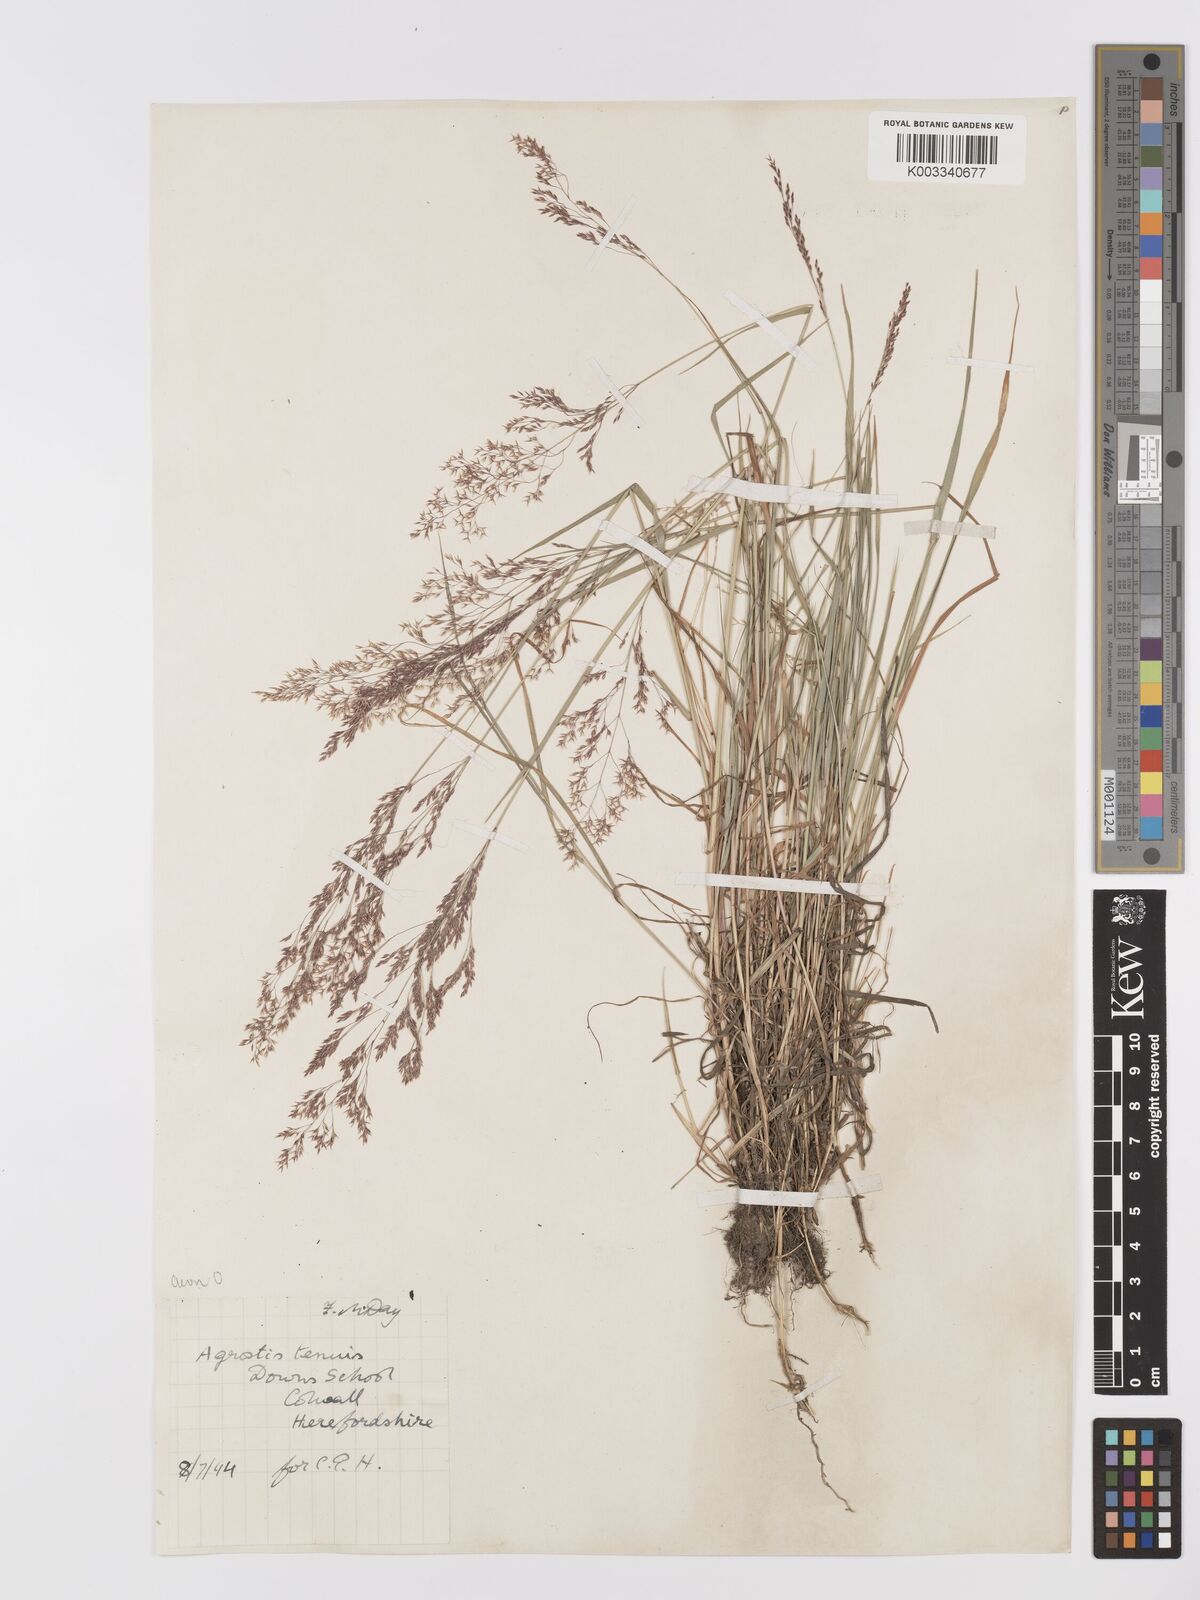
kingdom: Plantae
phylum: Tracheophyta
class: Liliopsida
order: Poales
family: Poaceae
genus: Agrostis
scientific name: Agrostis capillaris
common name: Colonial bentgrass
